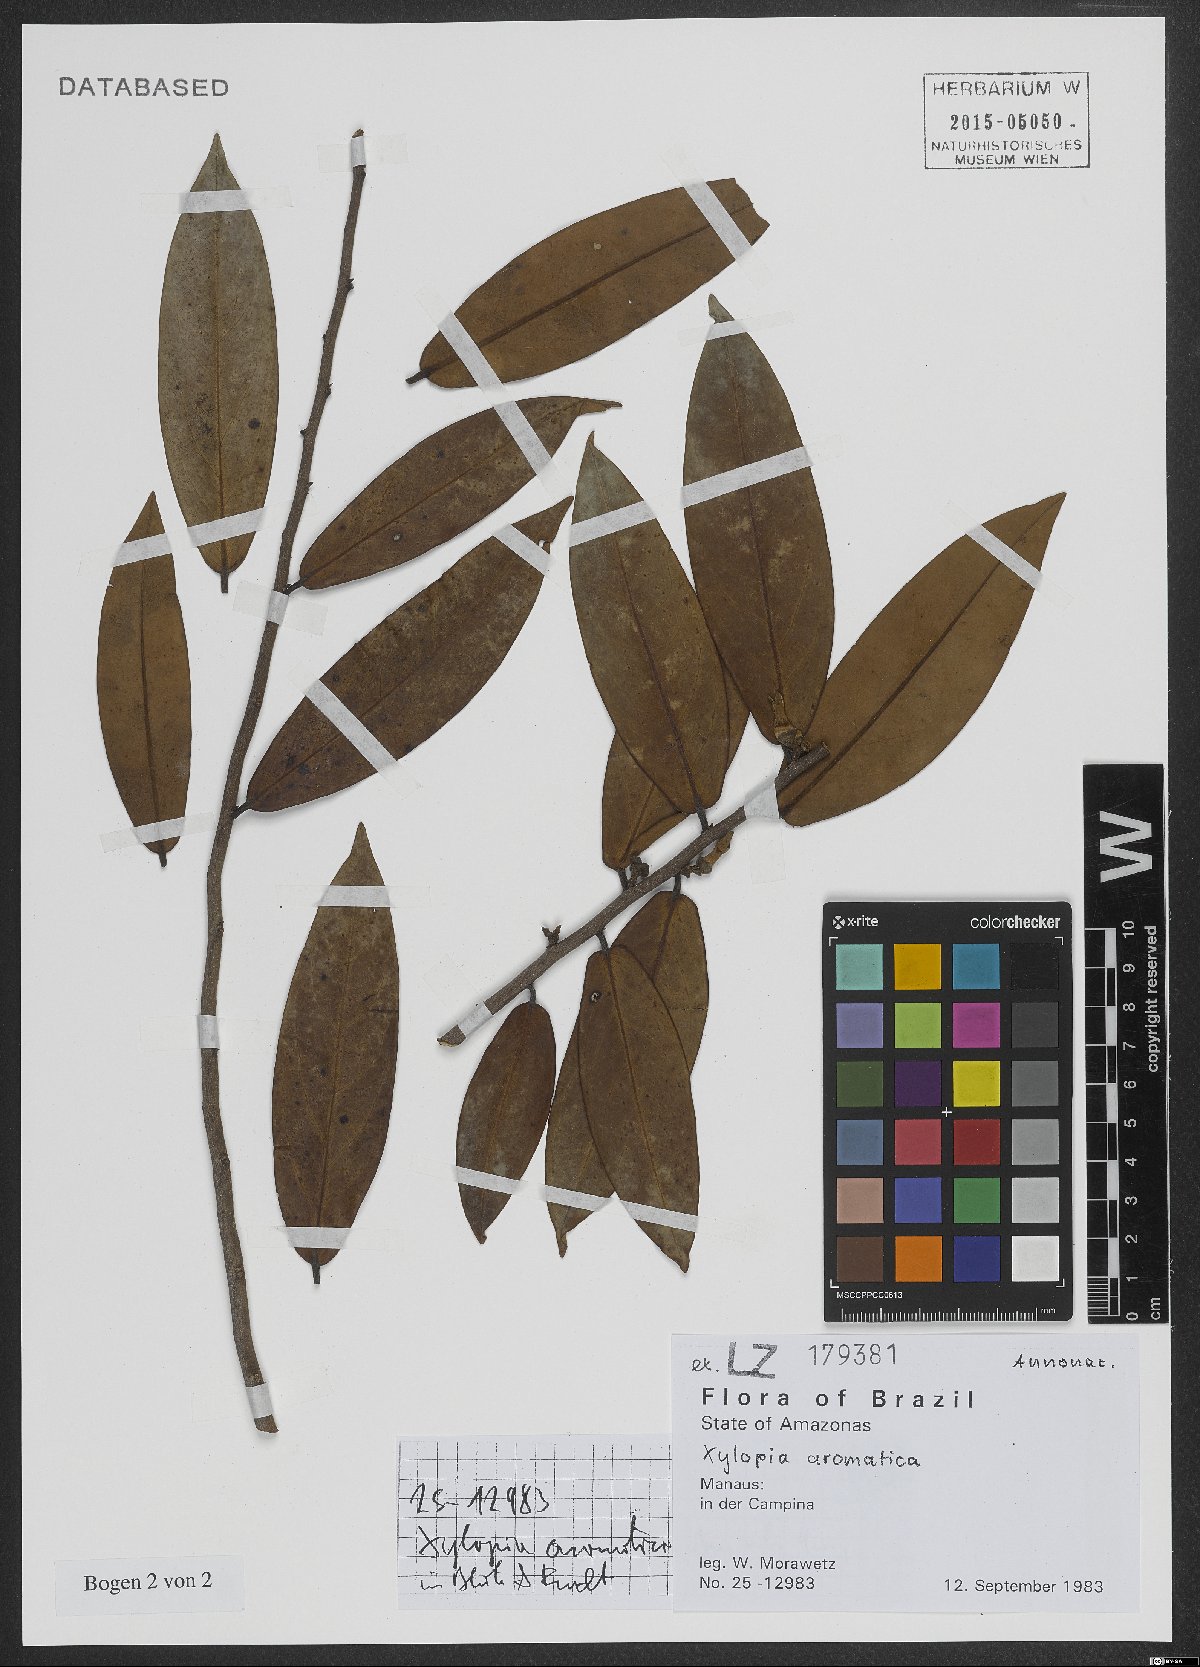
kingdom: Plantae
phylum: Tracheophyta
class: Magnoliopsida
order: Magnoliales
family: Annonaceae
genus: Xylopia
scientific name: Xylopia aromatica
